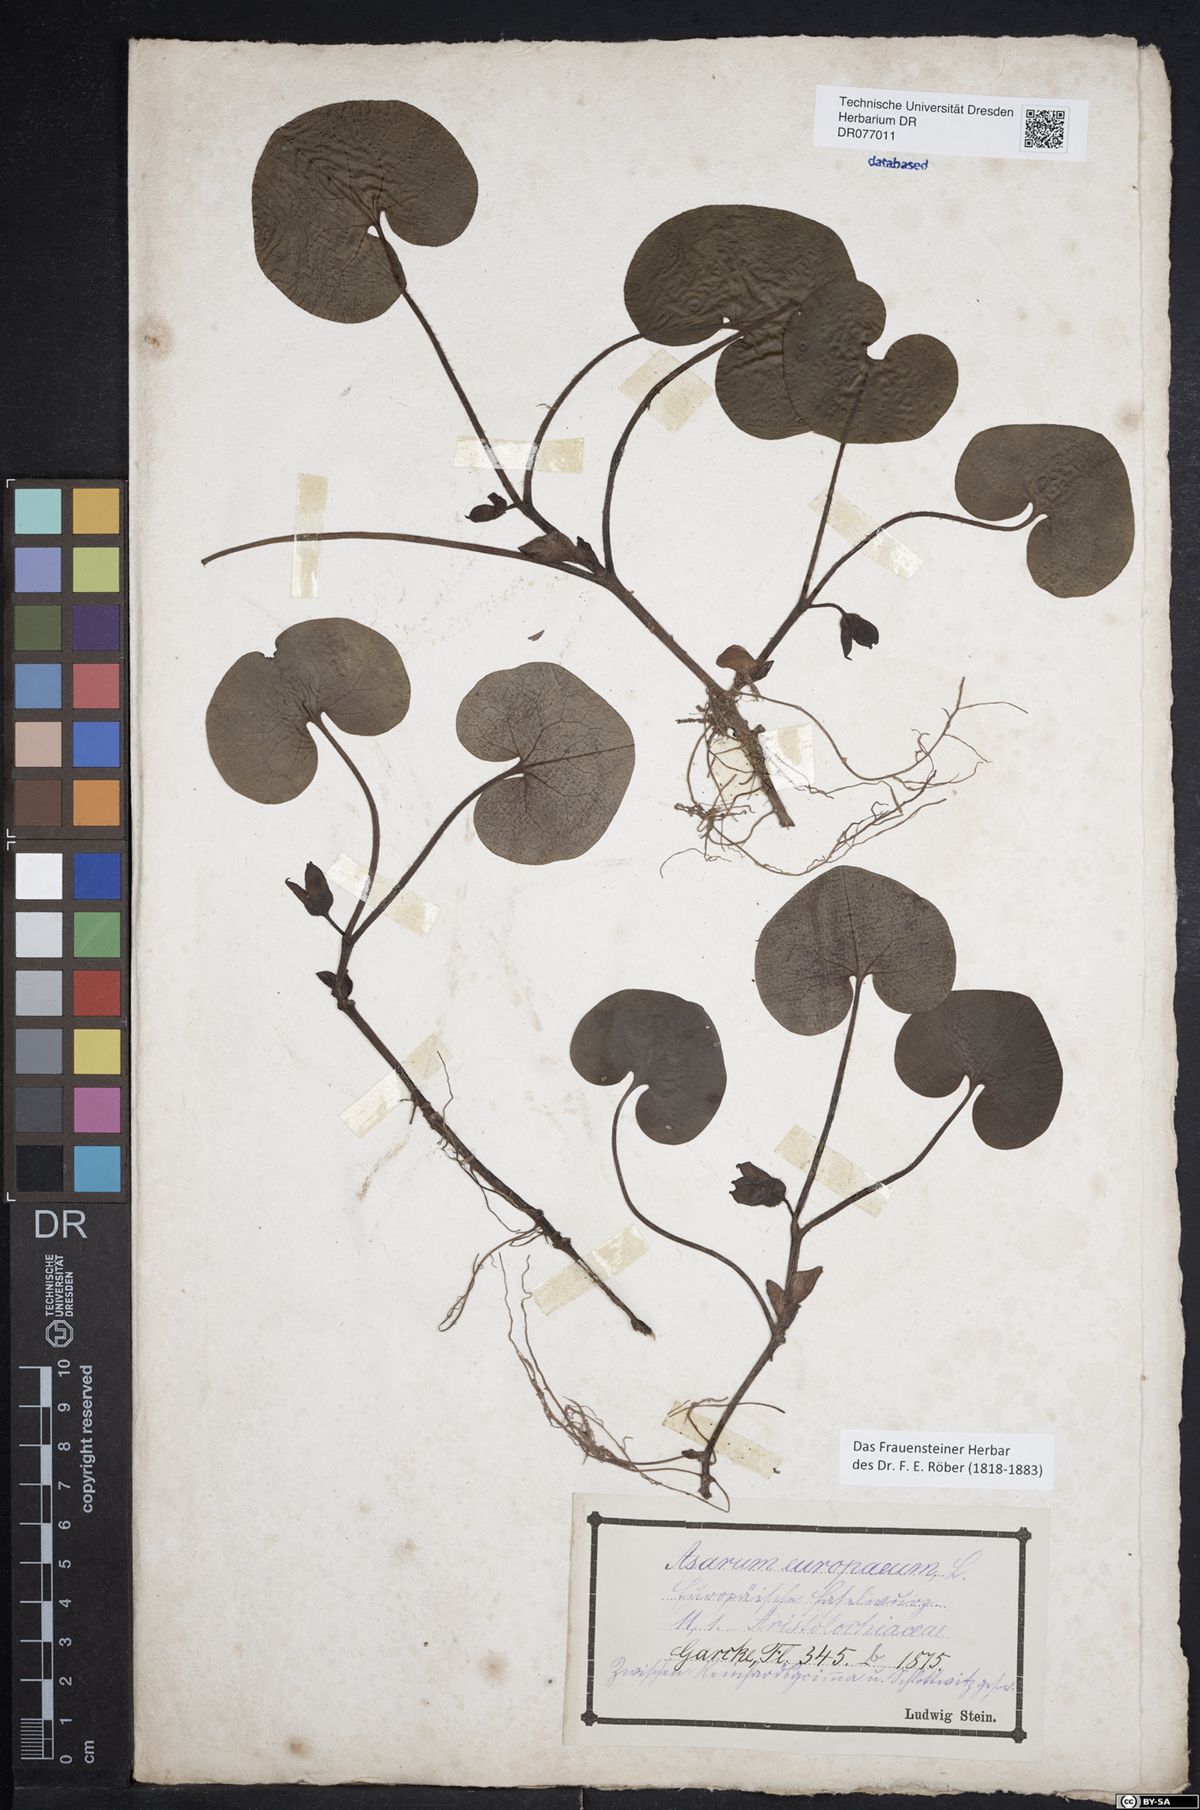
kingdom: Plantae
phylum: Tracheophyta
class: Magnoliopsida
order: Piperales
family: Aristolochiaceae
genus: Asarum
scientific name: Asarum europaeum
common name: Asarabacca
